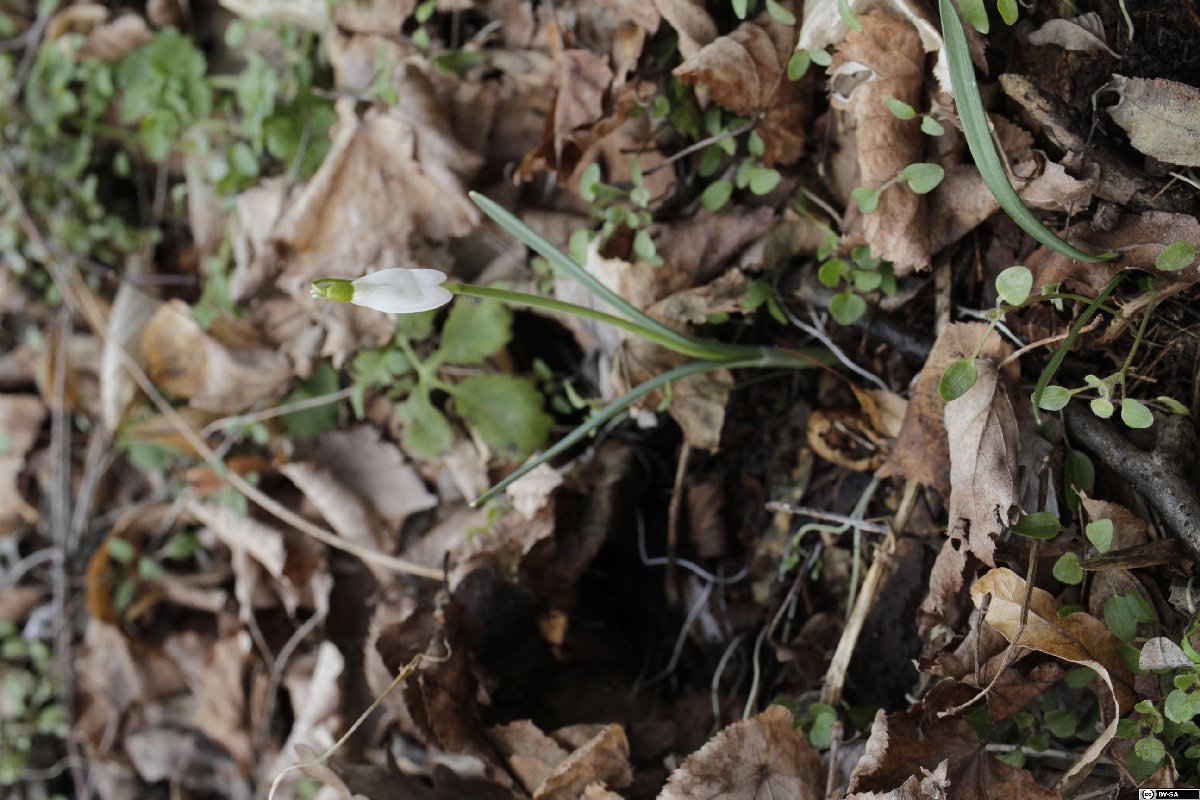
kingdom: Plantae
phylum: Tracheophyta
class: Liliopsida
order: Asparagales
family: Amaryllidaceae
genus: Galanthus
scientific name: Galanthus nivalis
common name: Snowdrop
